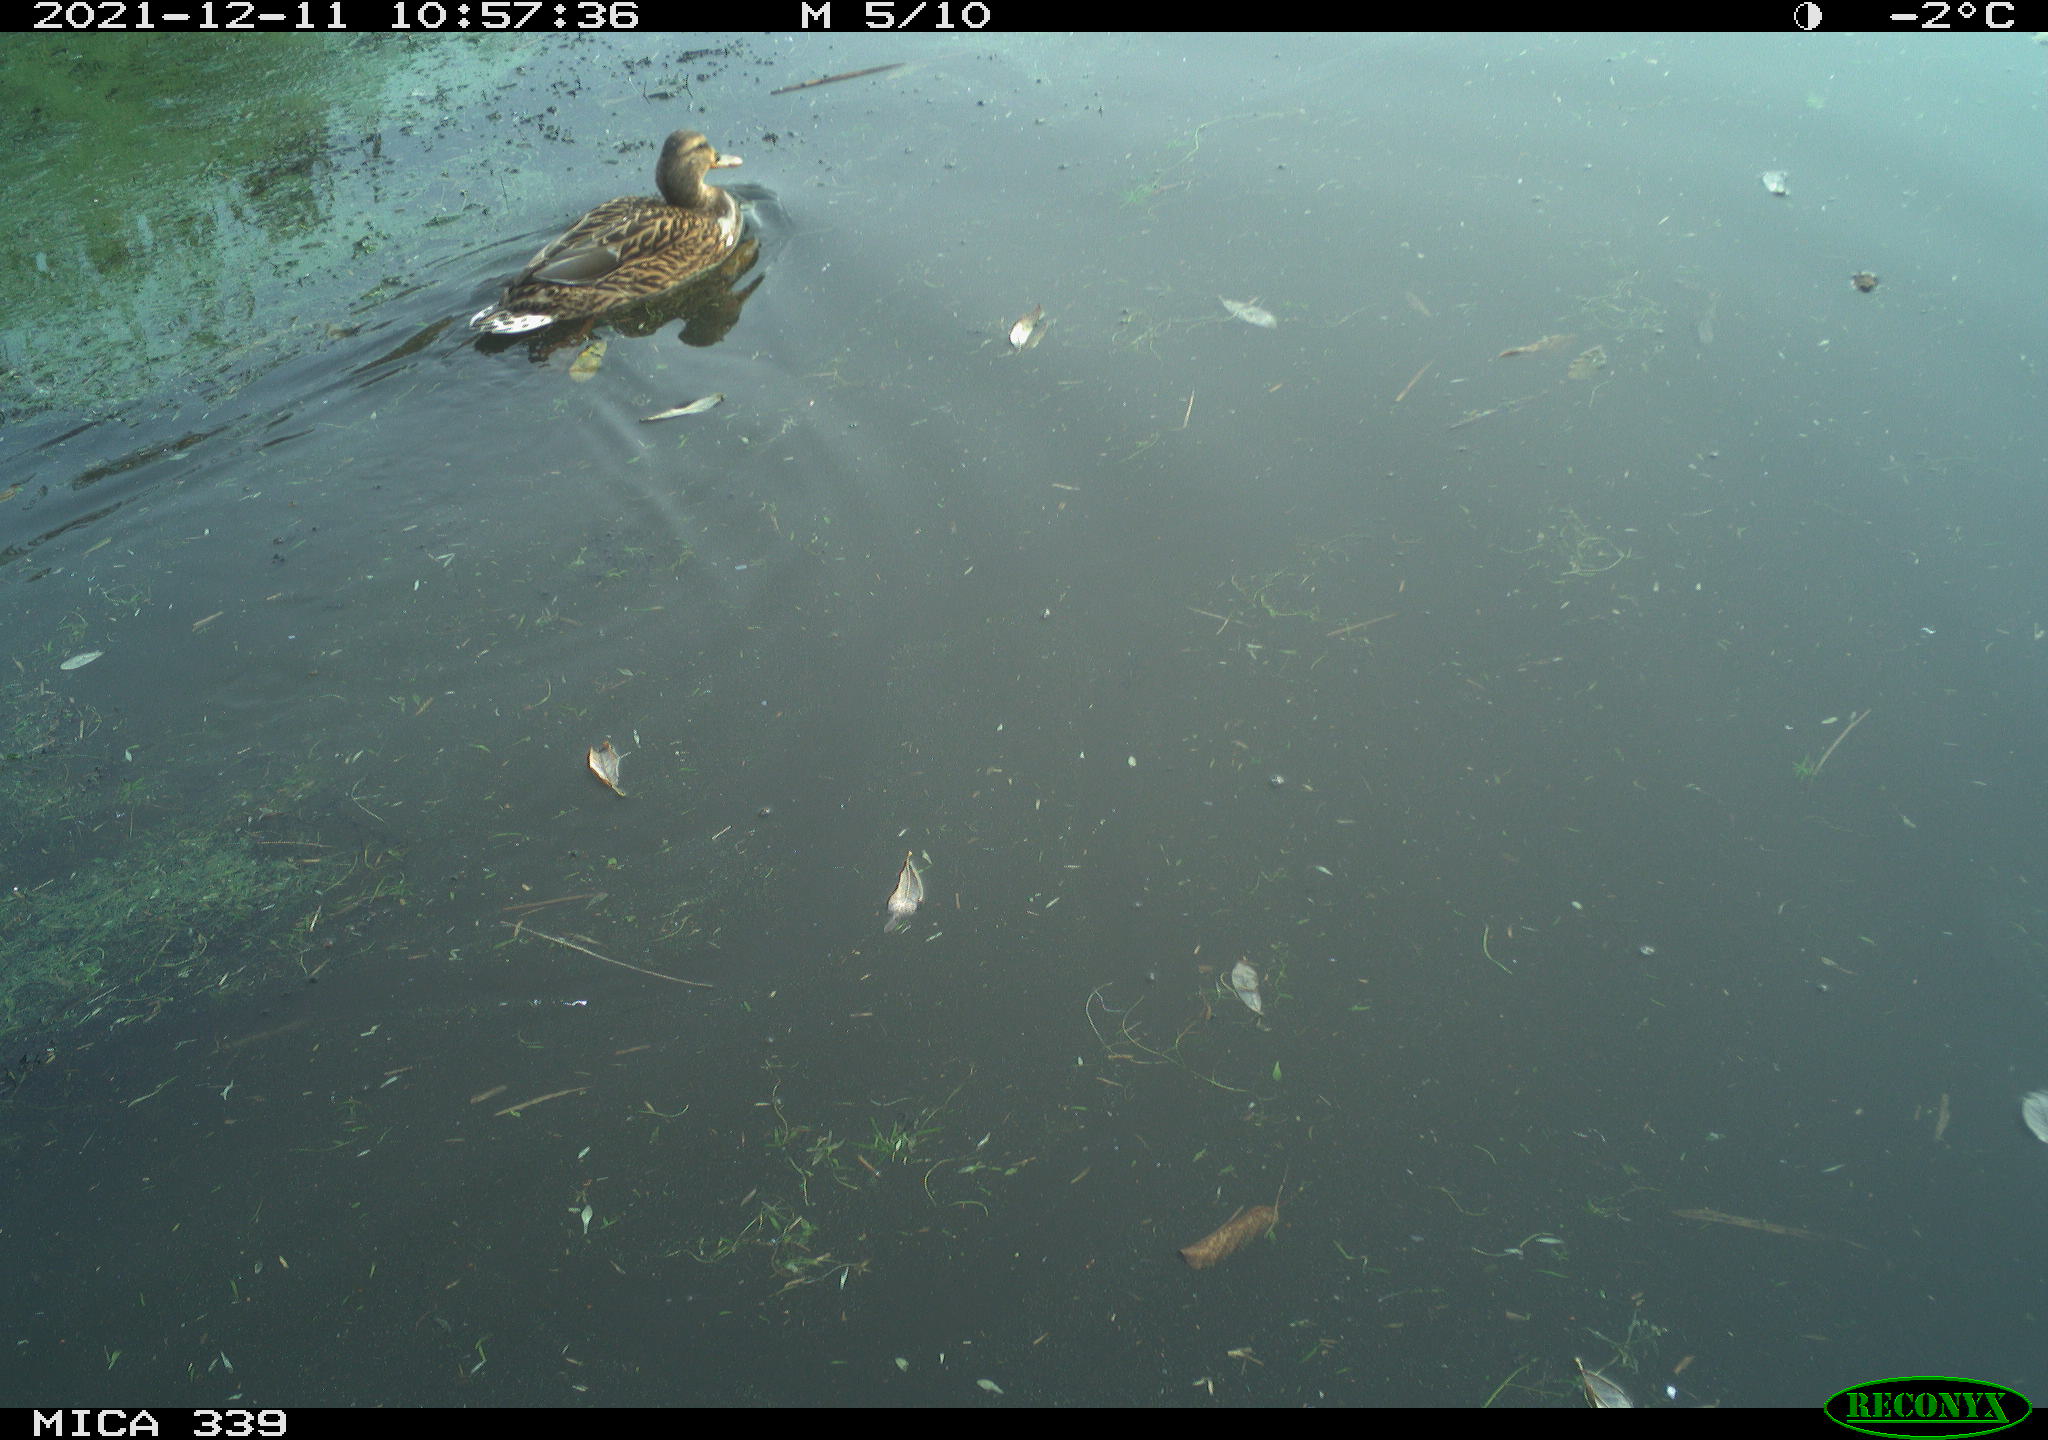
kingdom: Animalia
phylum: Chordata
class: Aves
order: Anseriformes
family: Anatidae
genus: Anas
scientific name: Anas platyrhynchos
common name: Mallard
